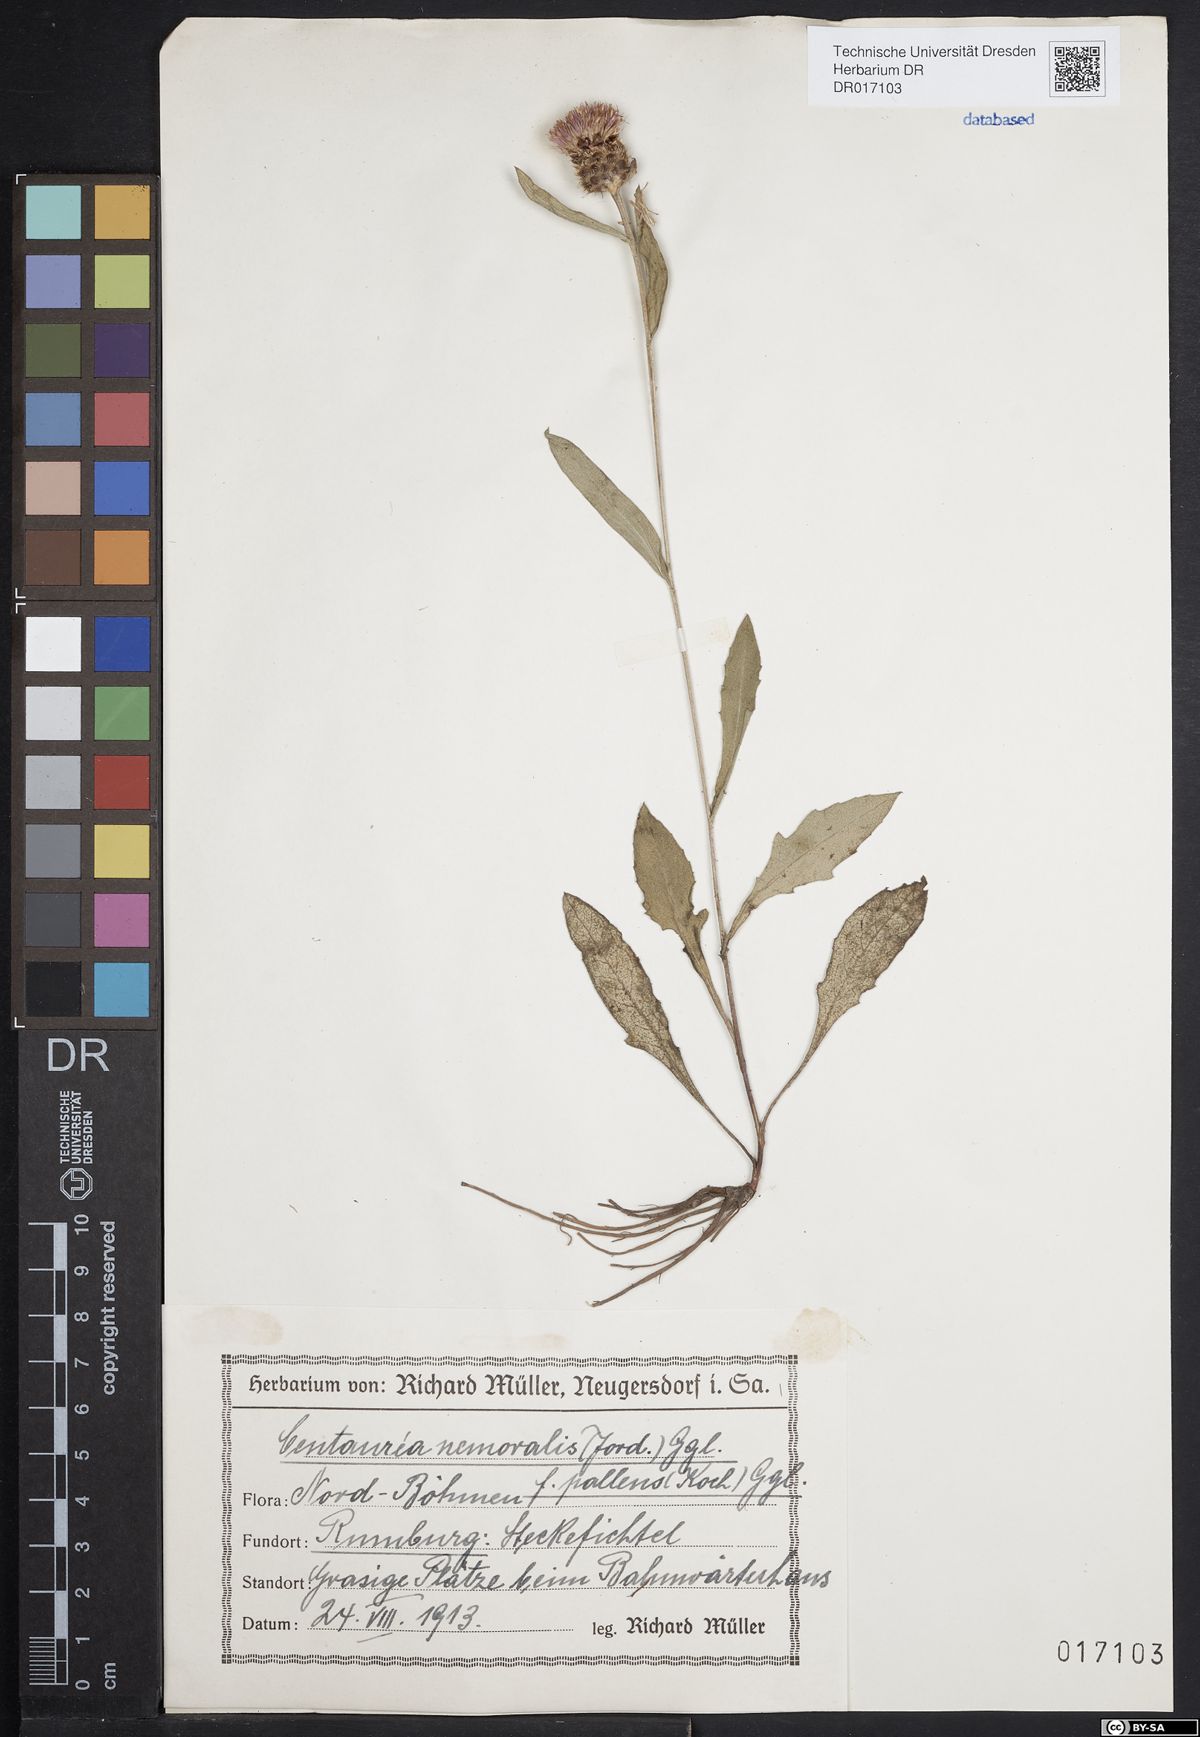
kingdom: Plantae
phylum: Tracheophyta
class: Magnoliopsida
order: Asterales
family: Asteraceae
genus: Centaurea
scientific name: Centaurea nigra
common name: Lesser knapweed
